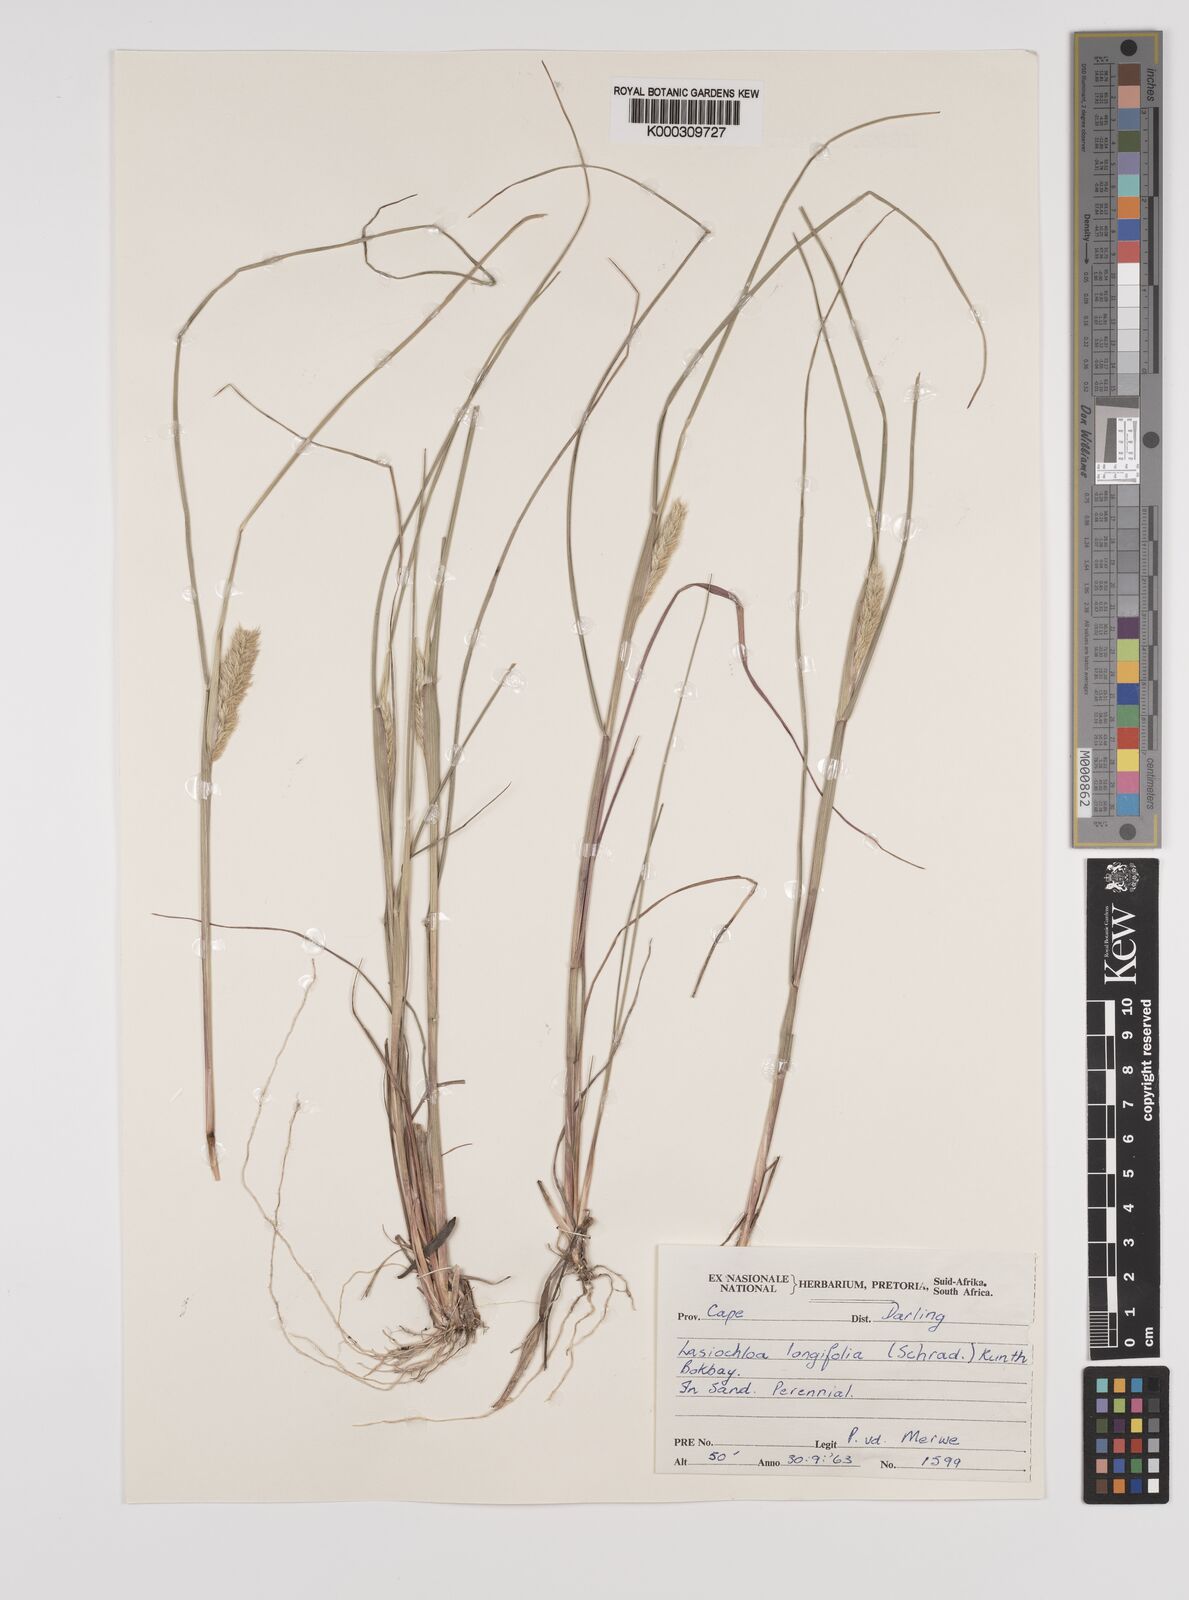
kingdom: Plantae
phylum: Tracheophyta
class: Liliopsida
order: Poales
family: Poaceae
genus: Tribolium
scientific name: Tribolium hispidum
